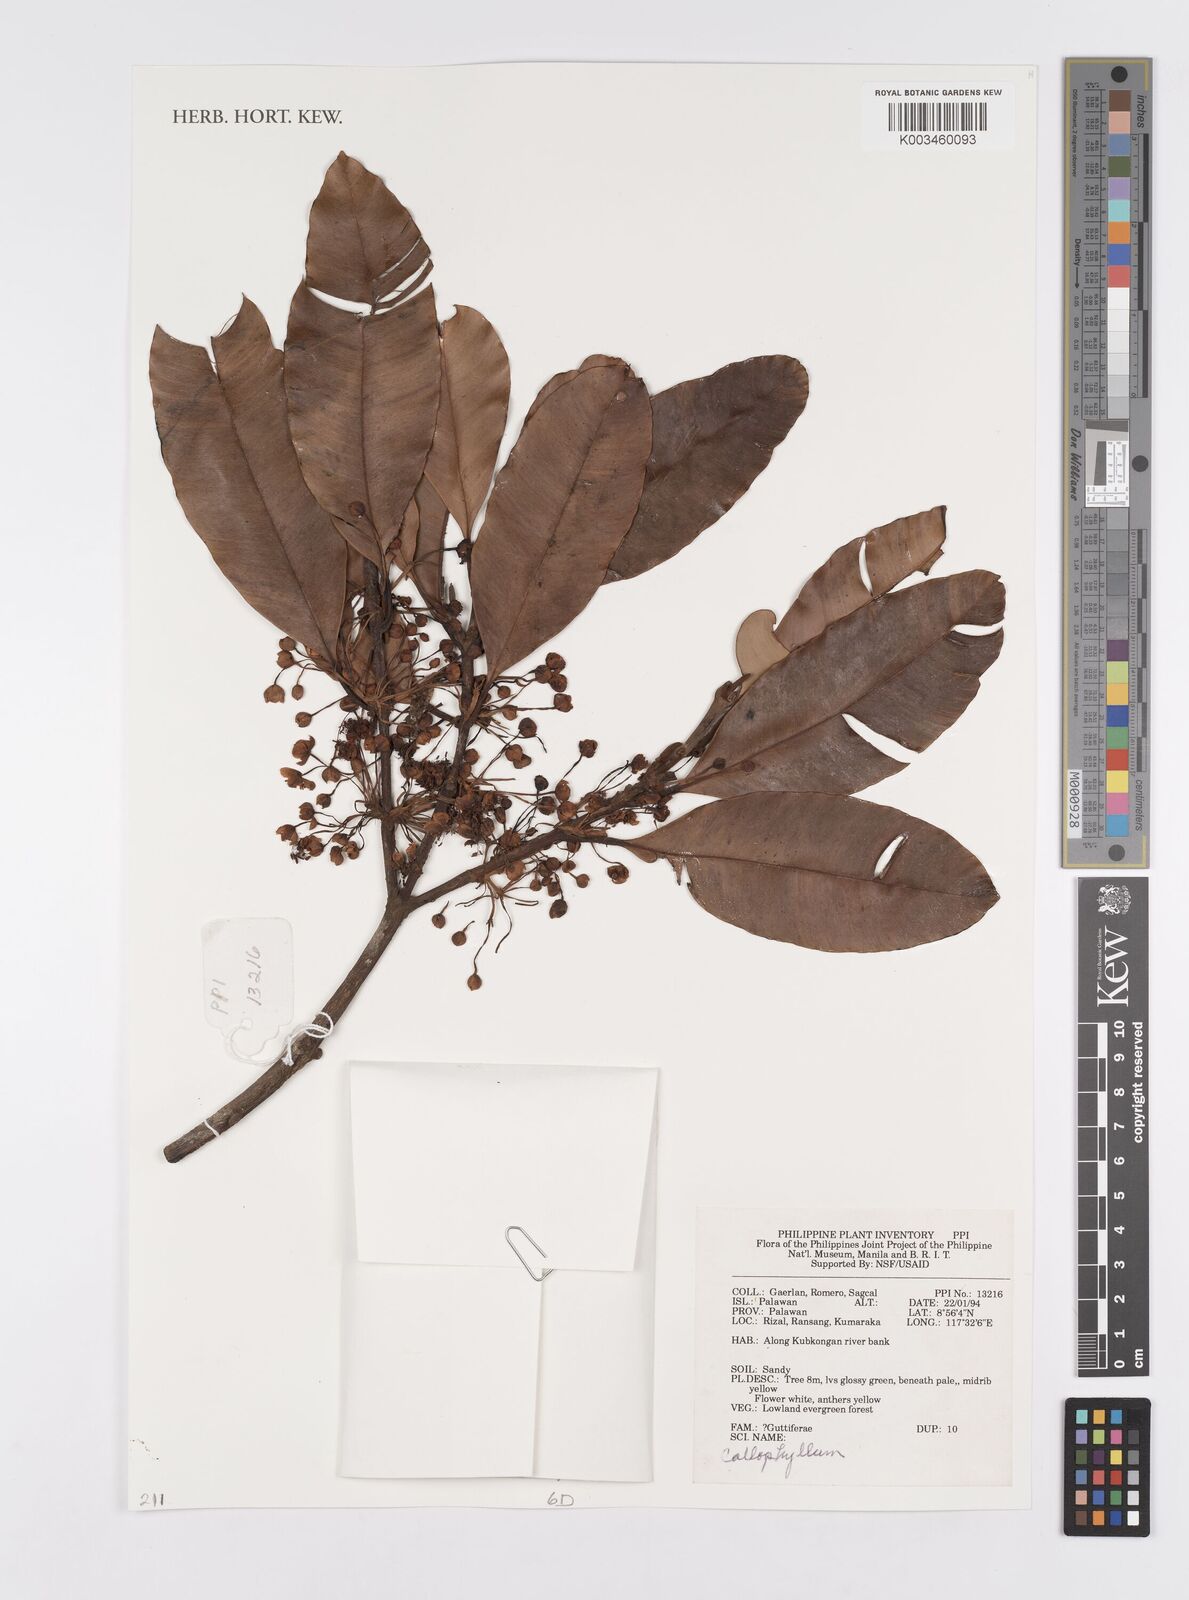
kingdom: Plantae
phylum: Tracheophyta
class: Magnoliopsida
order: Malpighiales
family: Calophyllaceae
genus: Calophyllum
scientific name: Calophyllum
